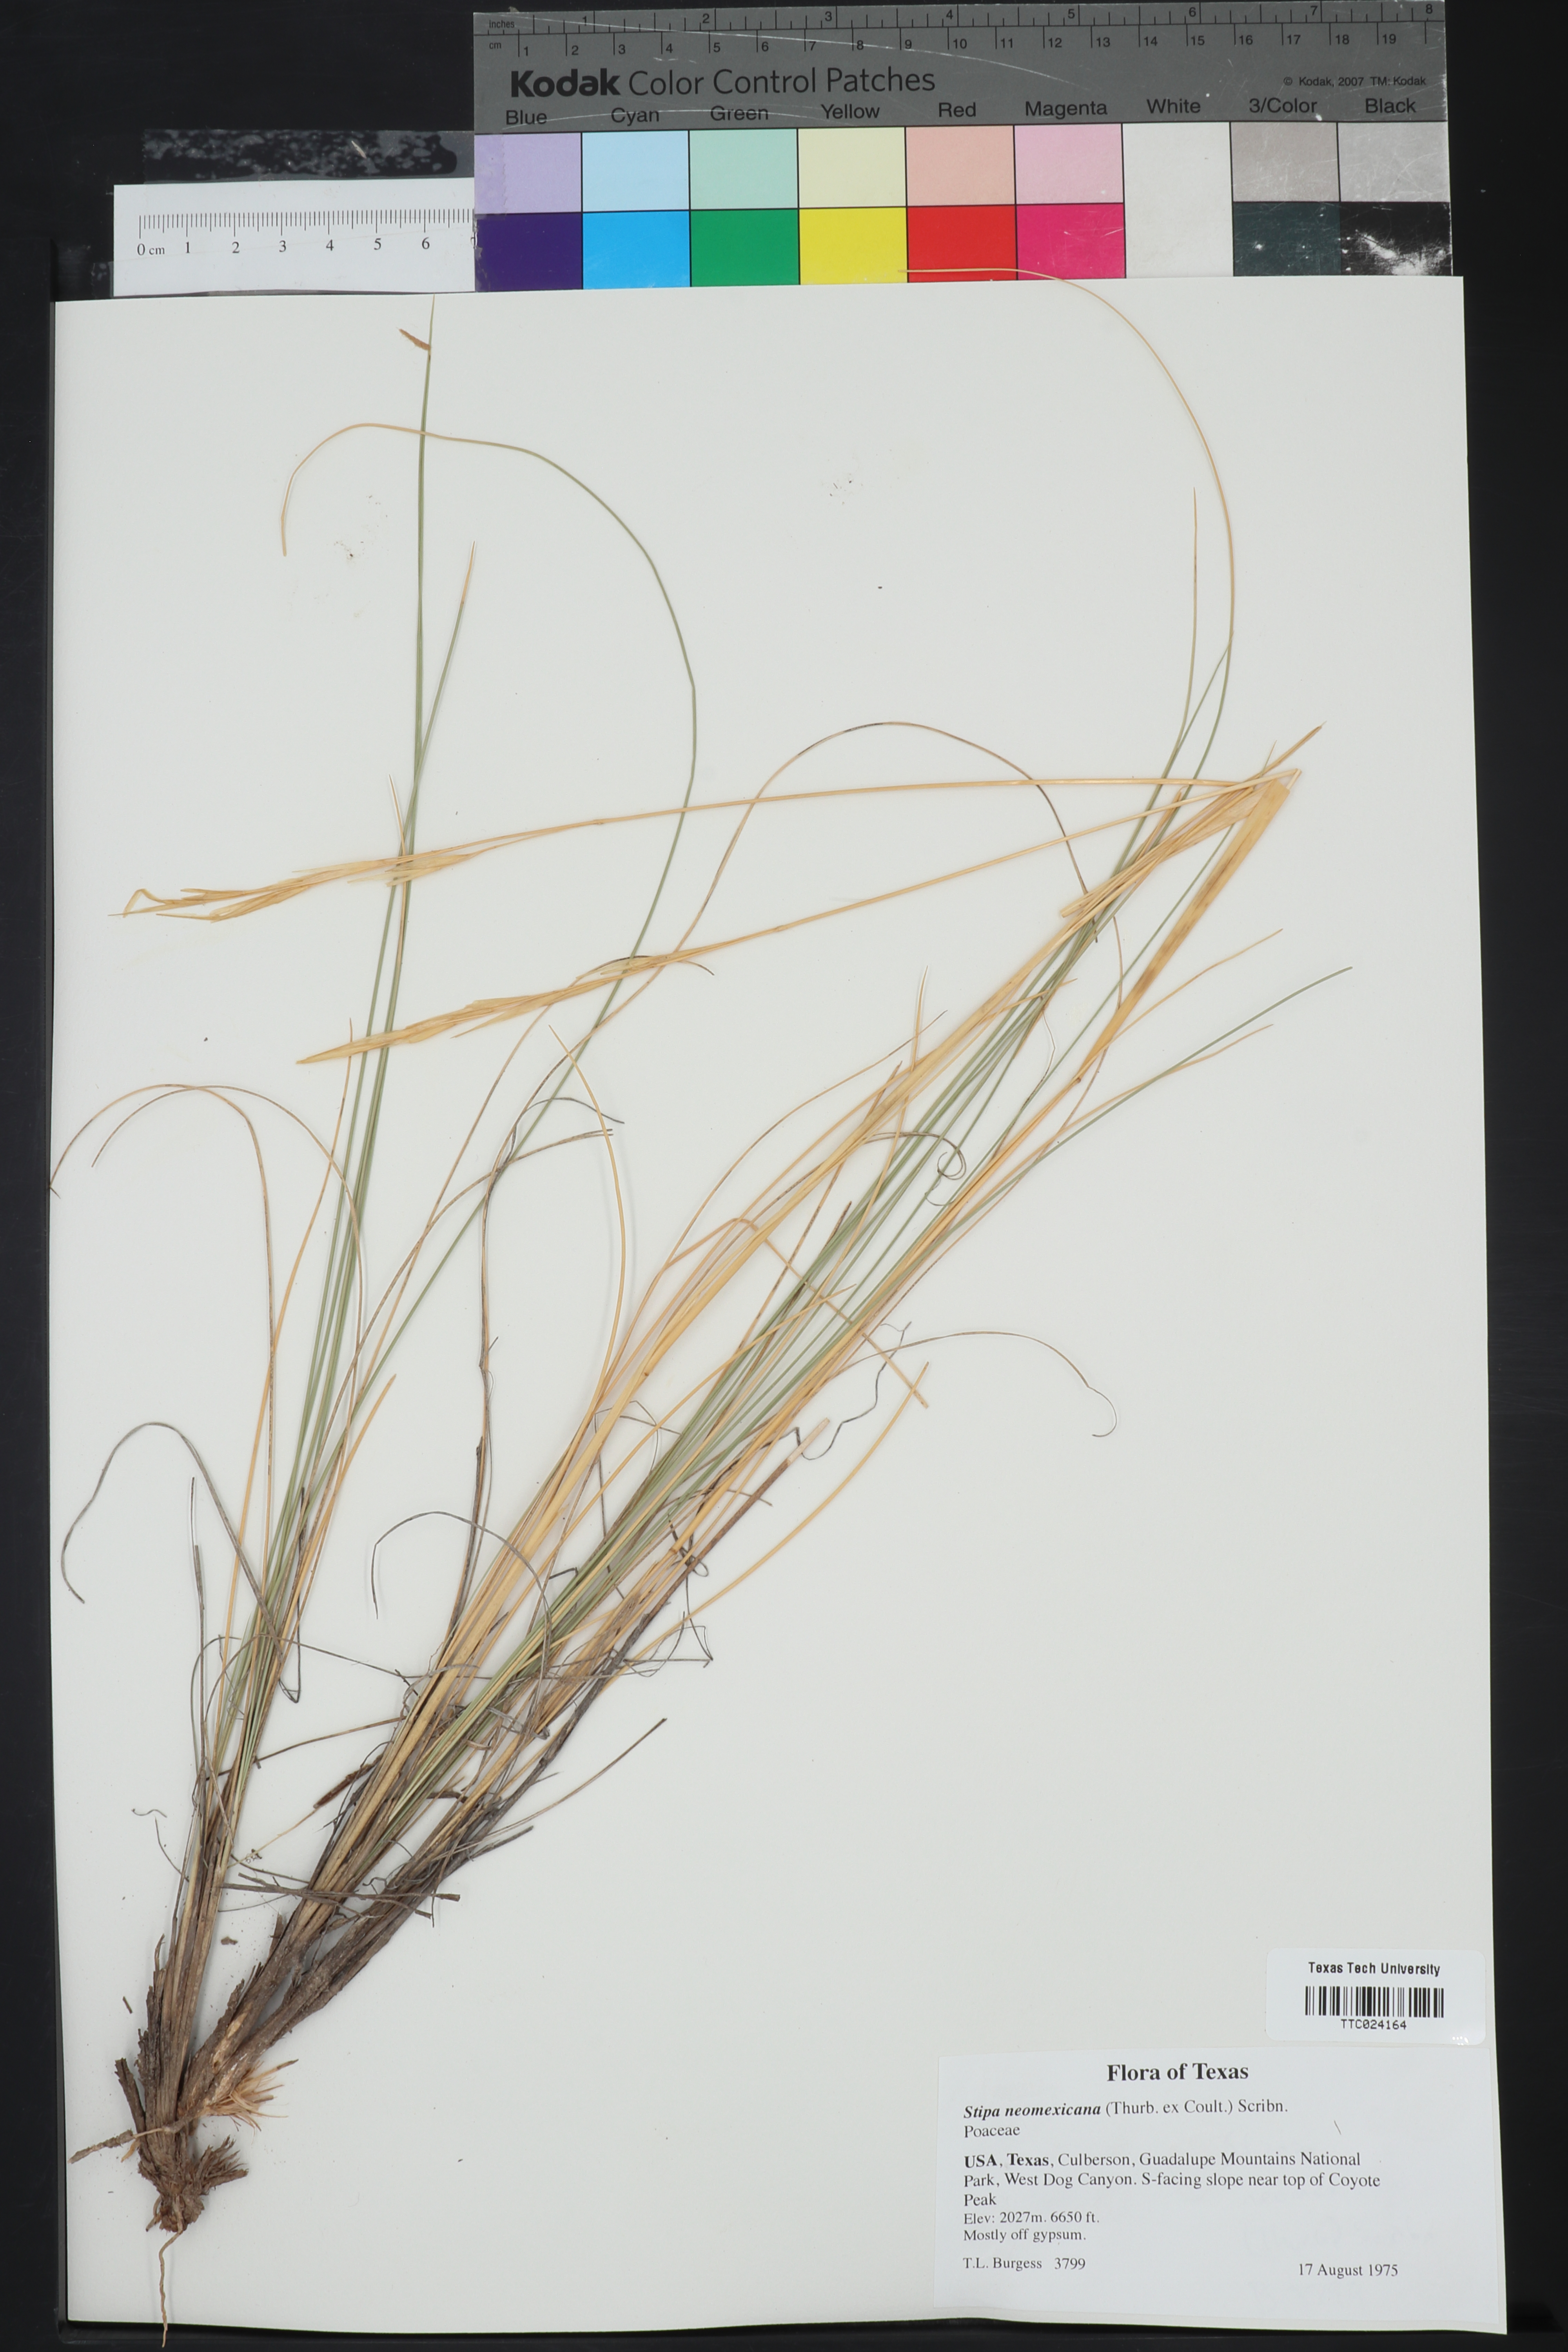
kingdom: Plantae
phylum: Tracheophyta
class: Liliopsida
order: Poales
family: Poaceae
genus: Hesperostipa
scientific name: Hesperostipa neomexicana
